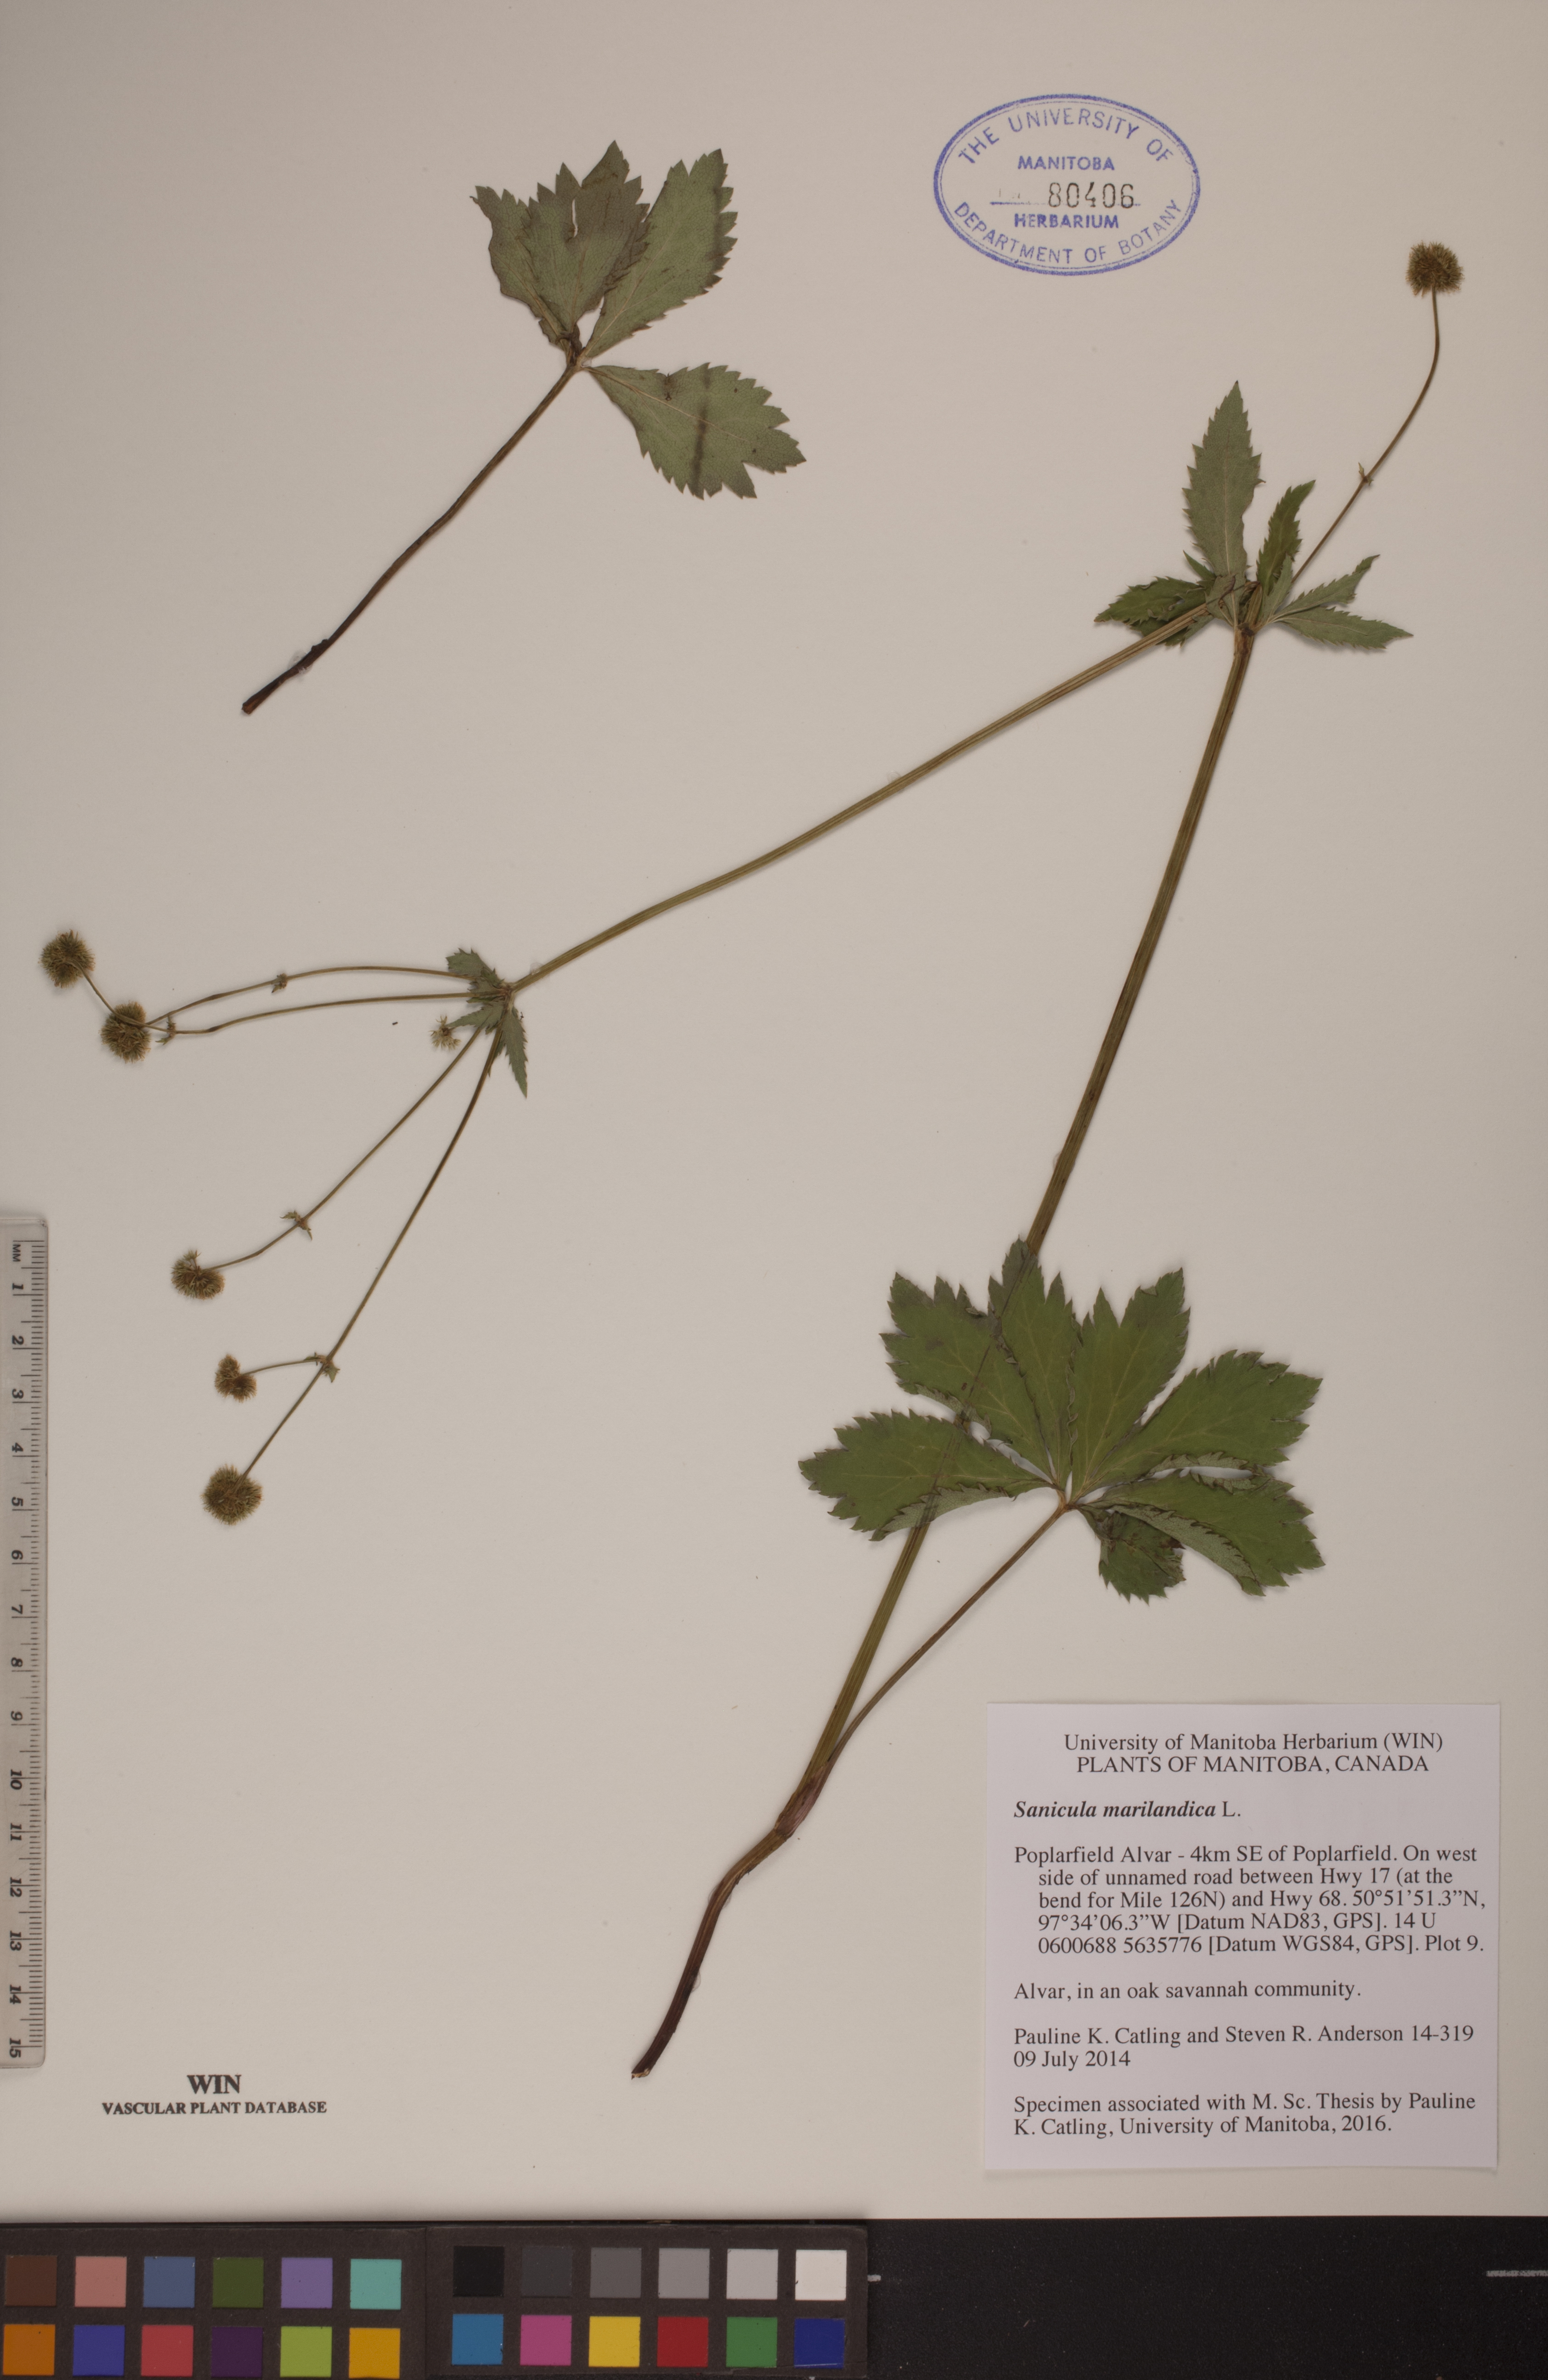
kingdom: Plantae
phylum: Tracheophyta
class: Magnoliopsida
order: Apiales
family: Apiaceae
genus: Sanicula
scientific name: Sanicula marilandica
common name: Black snakeroot
